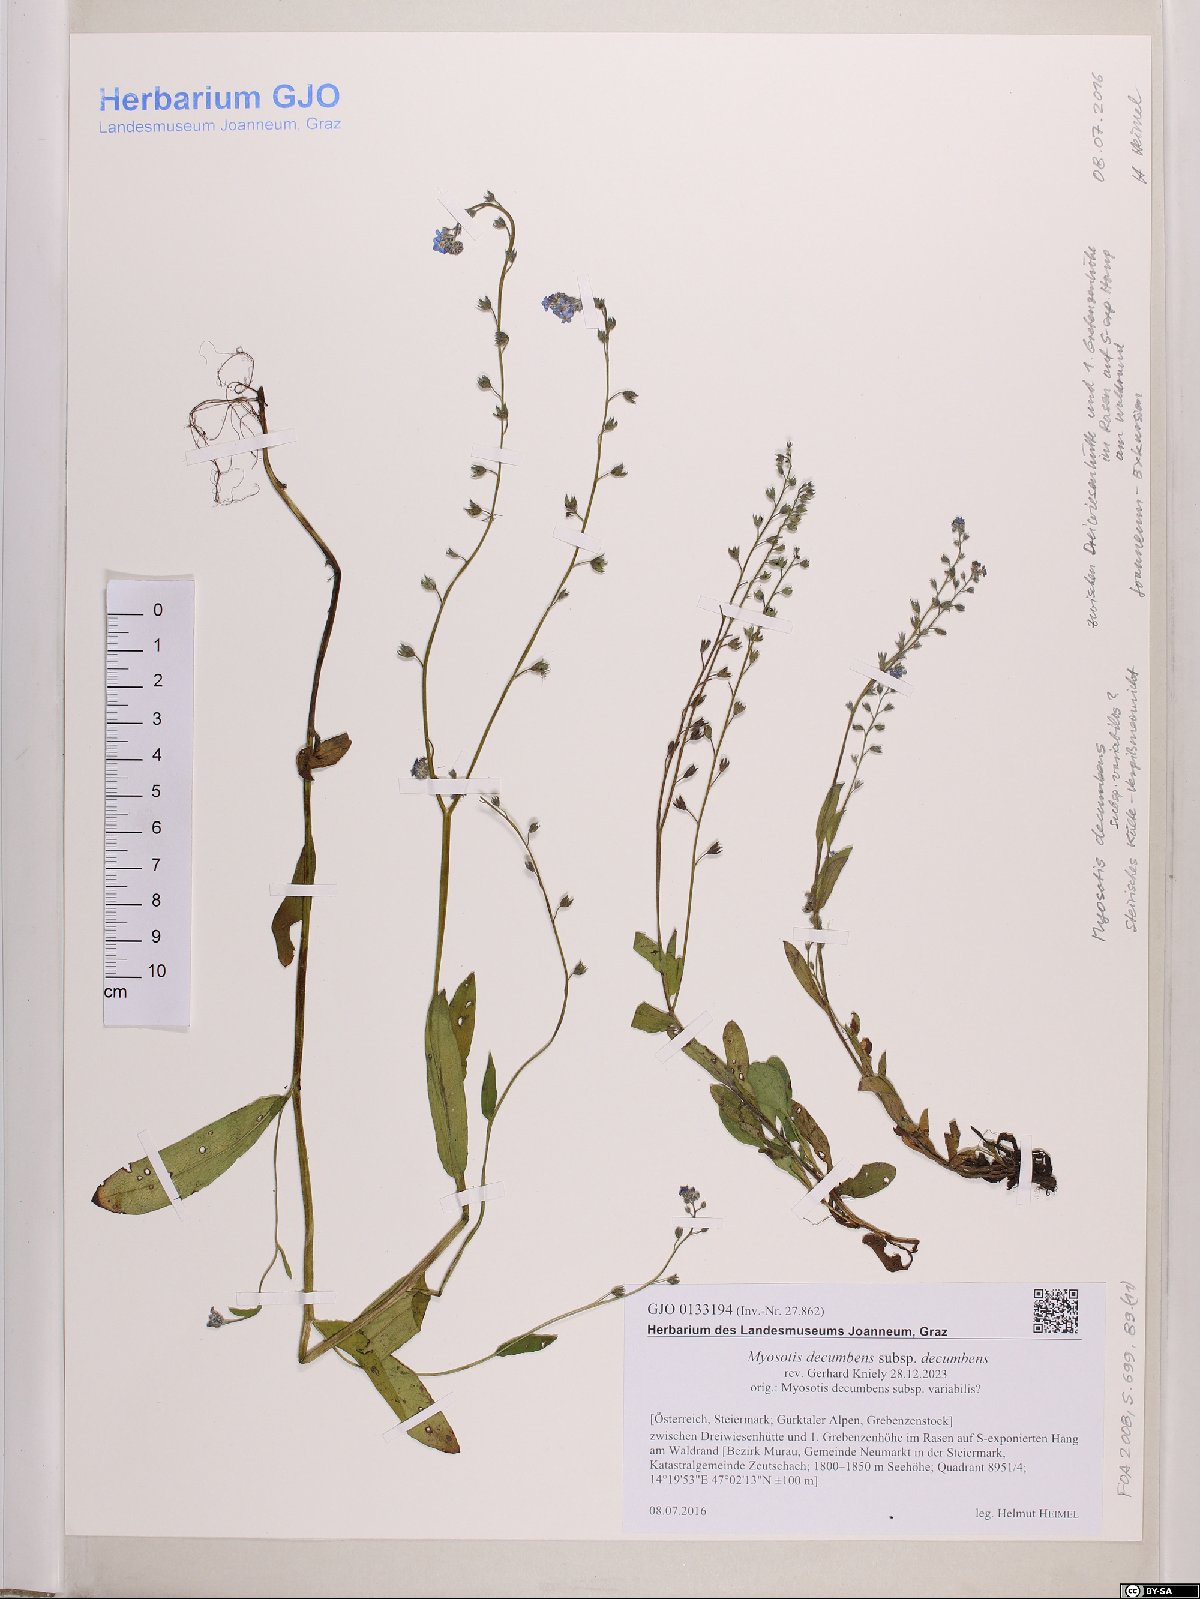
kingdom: Plantae
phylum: Tracheophyta
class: Magnoliopsida
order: Boraginales
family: Boraginaceae
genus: Myosotis
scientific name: Myosotis decumbens
